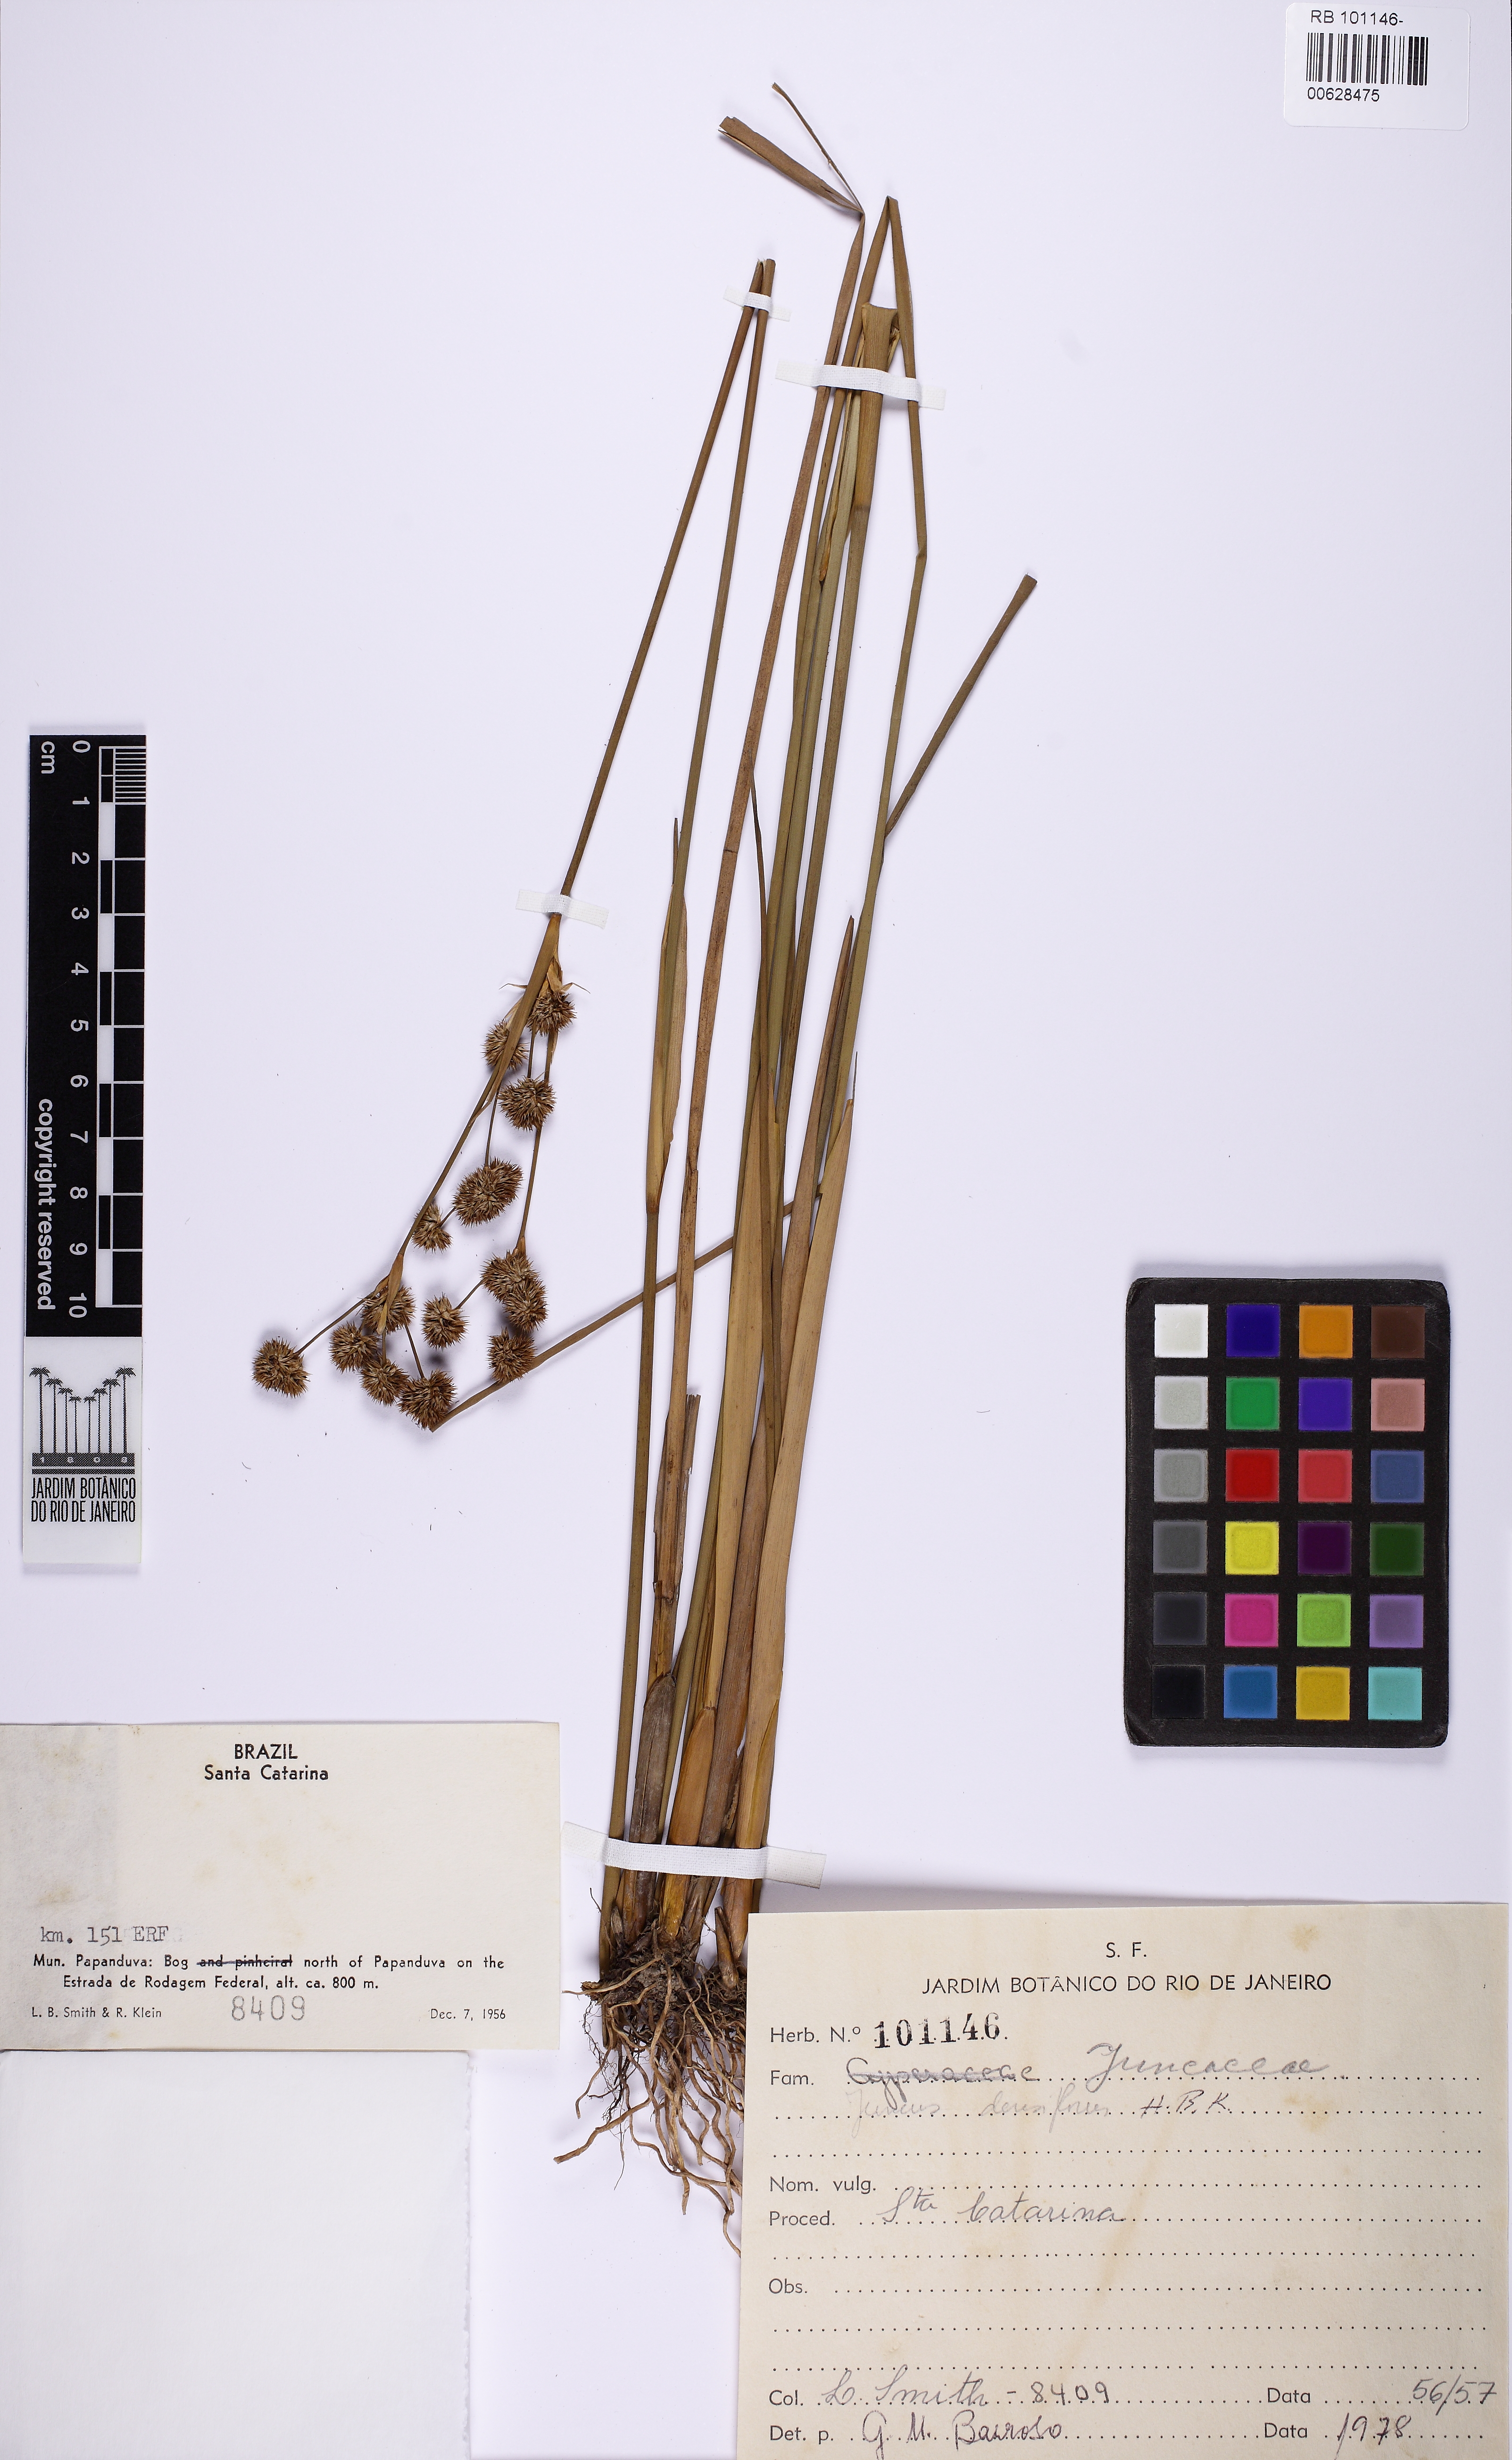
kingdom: Plantae
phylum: Tracheophyta
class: Liliopsida
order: Poales
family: Juncaceae
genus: Juncus
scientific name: Juncus densiflorus
